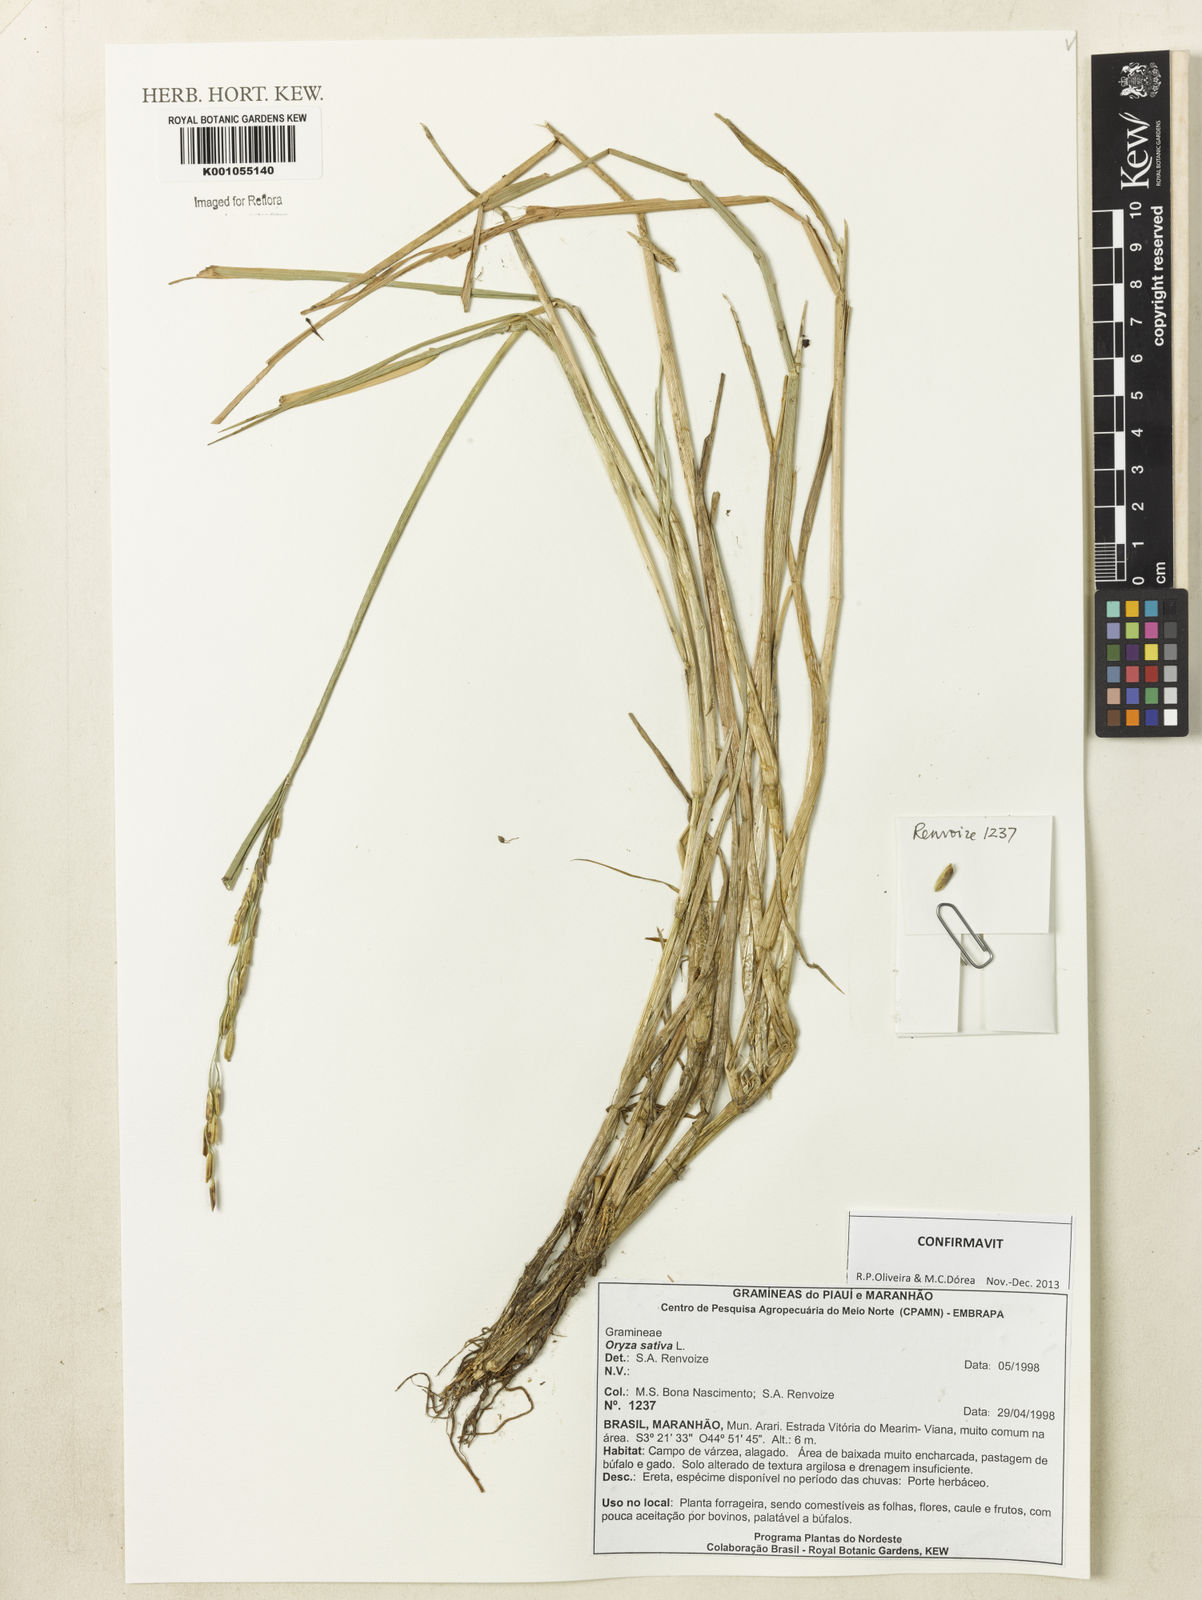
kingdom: Plantae
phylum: Tracheophyta
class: Liliopsida
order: Poales
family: Poaceae
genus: Oryza
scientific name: Oryza sativa
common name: Rice
